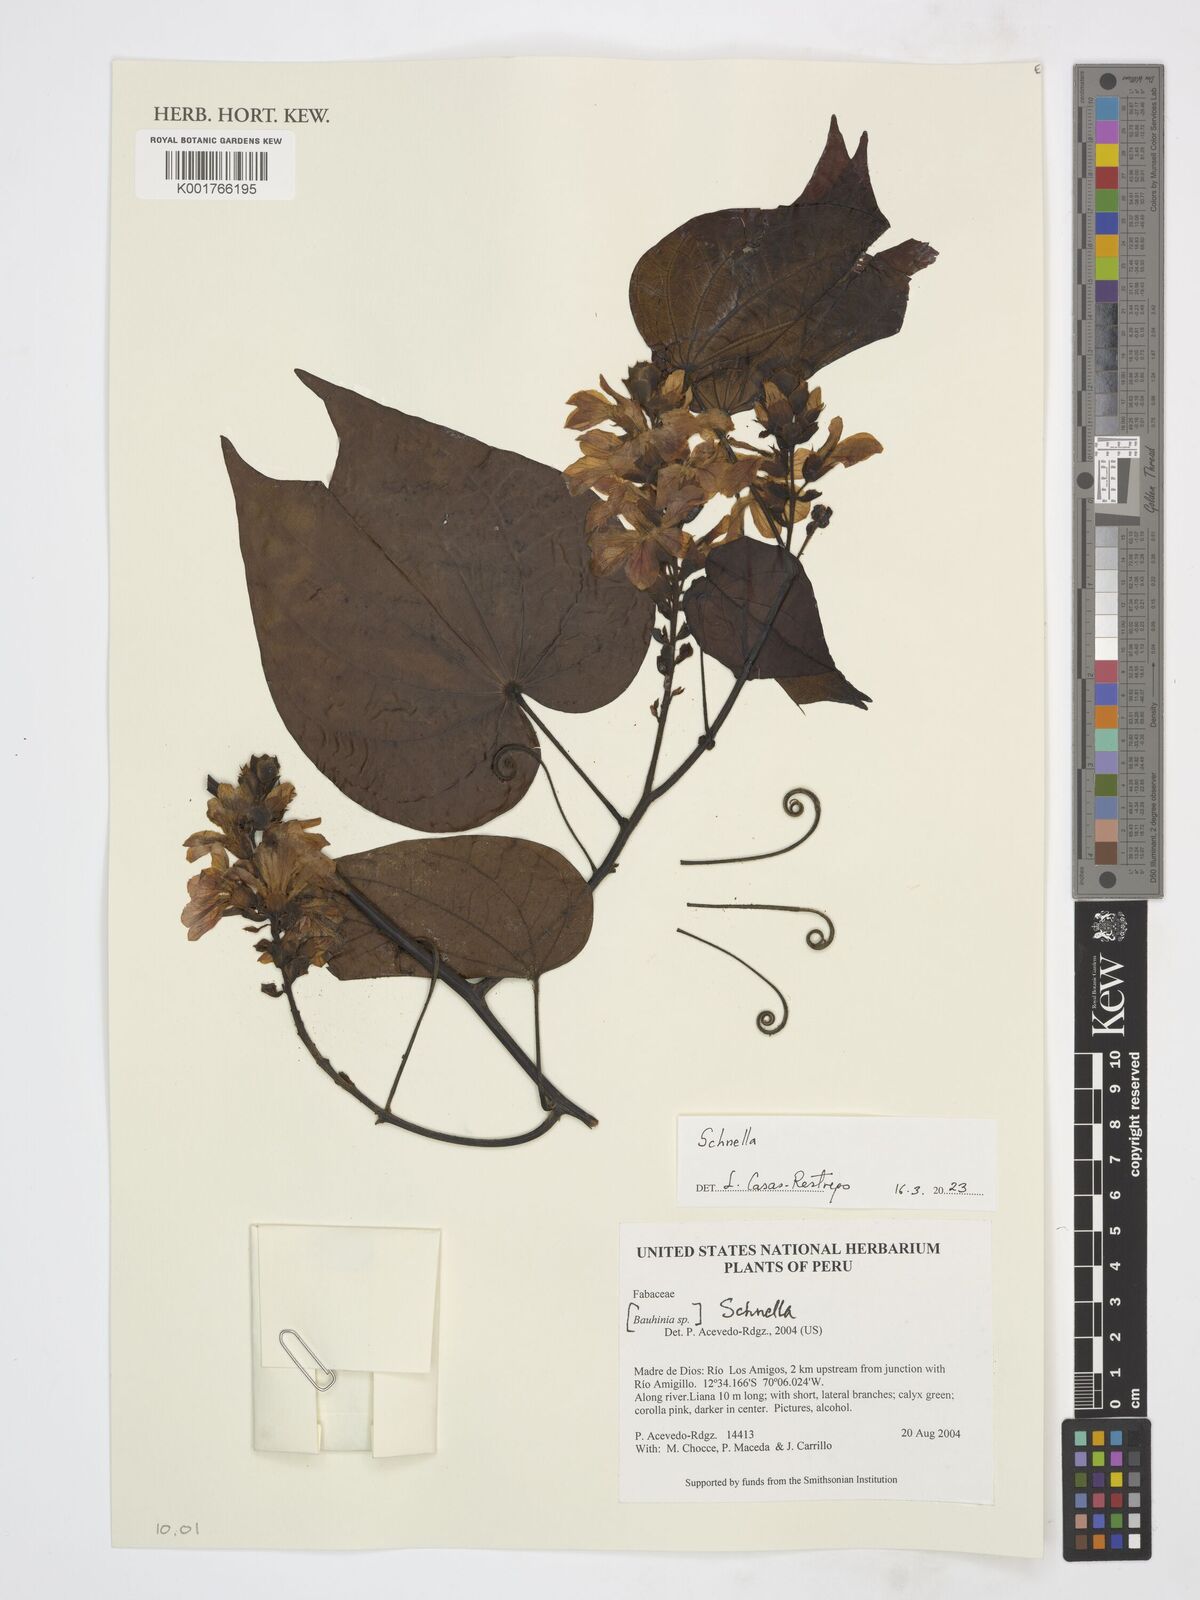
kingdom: Plantae
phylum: Tracheophyta
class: Magnoliopsida
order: Fabales
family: Fabaceae
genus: Schnella
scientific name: Schnella
